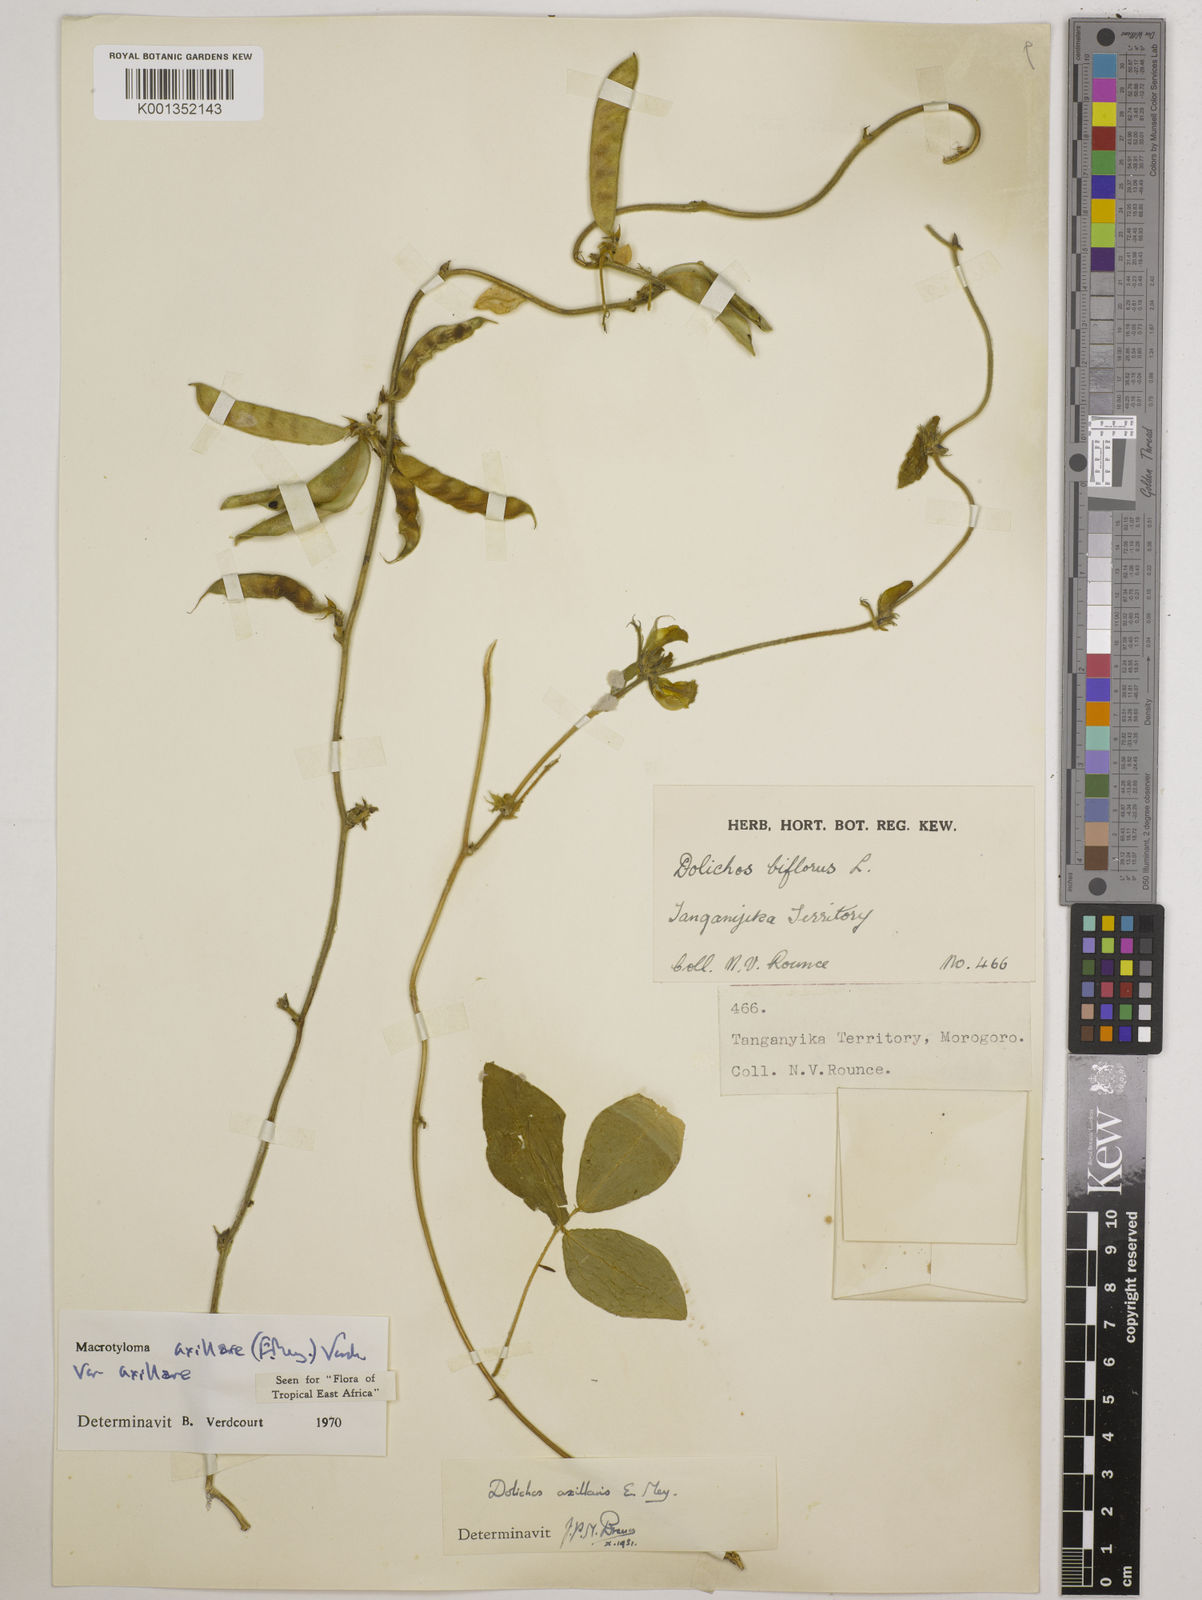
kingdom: Plantae
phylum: Tracheophyta
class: Magnoliopsida
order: Fabales
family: Fabaceae
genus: Macrotyloma
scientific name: Macrotyloma axillare
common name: Perennial horsegram
